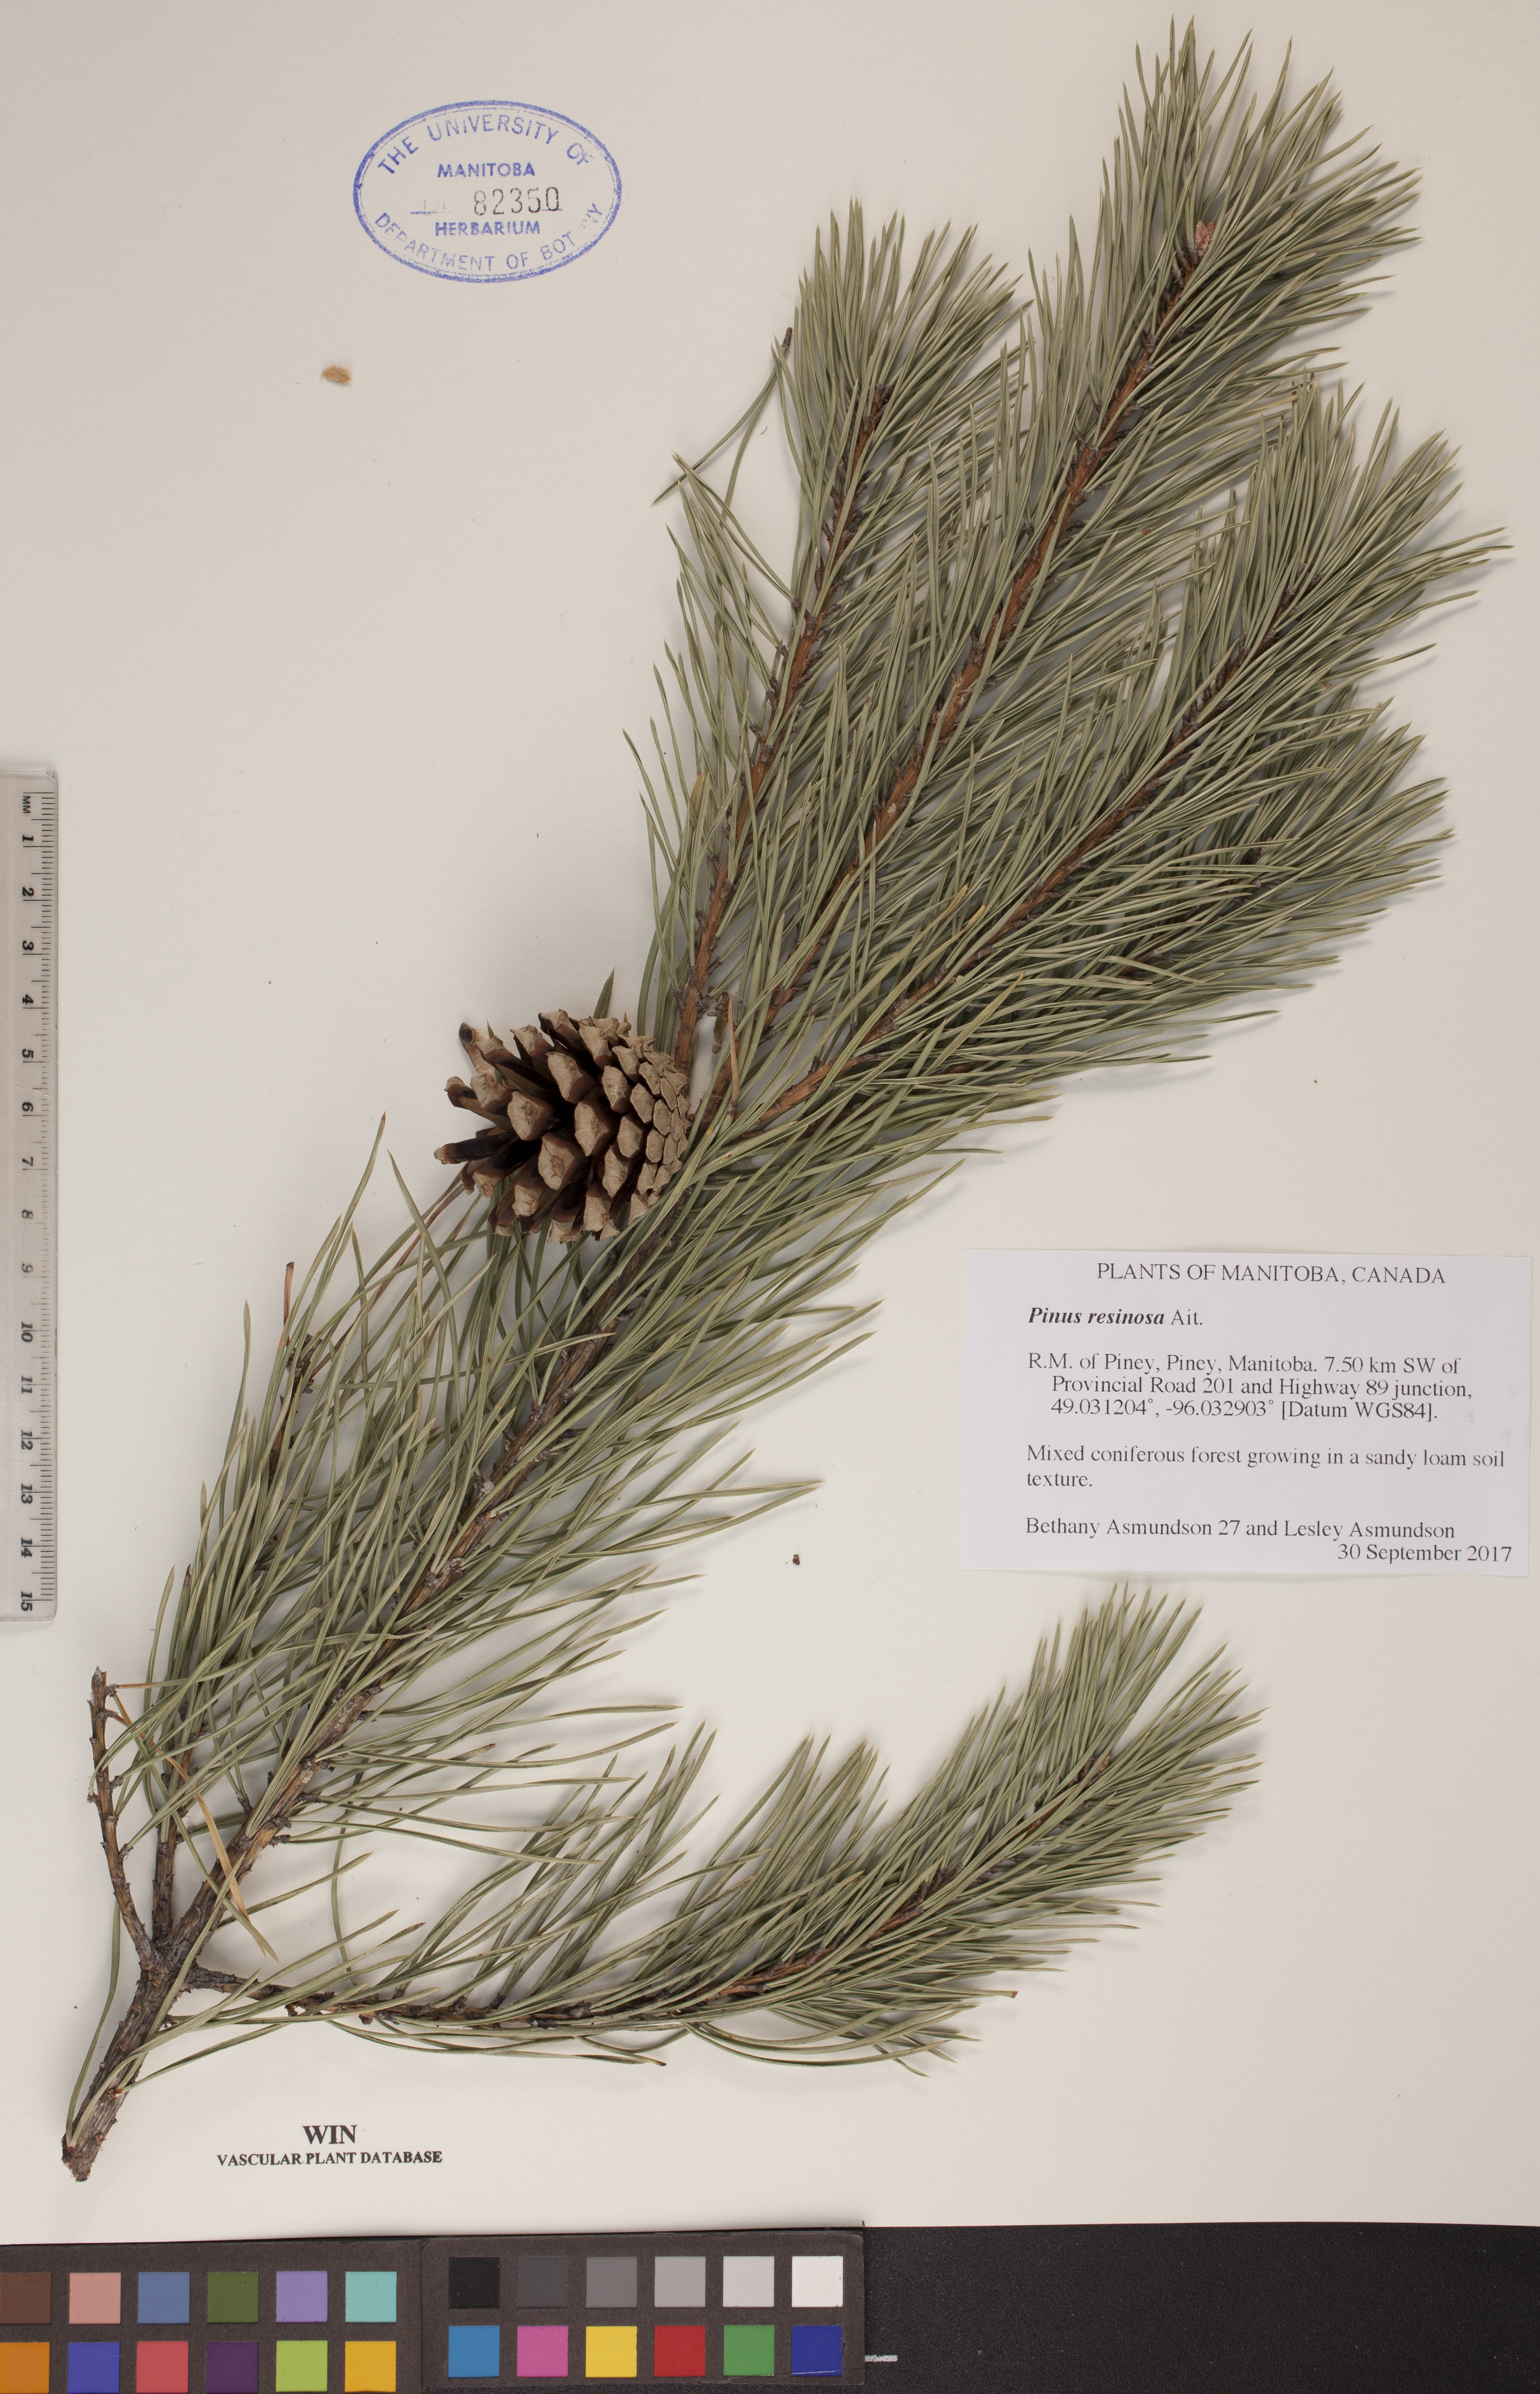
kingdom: Plantae
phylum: Tracheophyta
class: Pinopsida
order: Pinales
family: Pinaceae
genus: Pinus
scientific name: Pinus resinosa
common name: Norway pine
